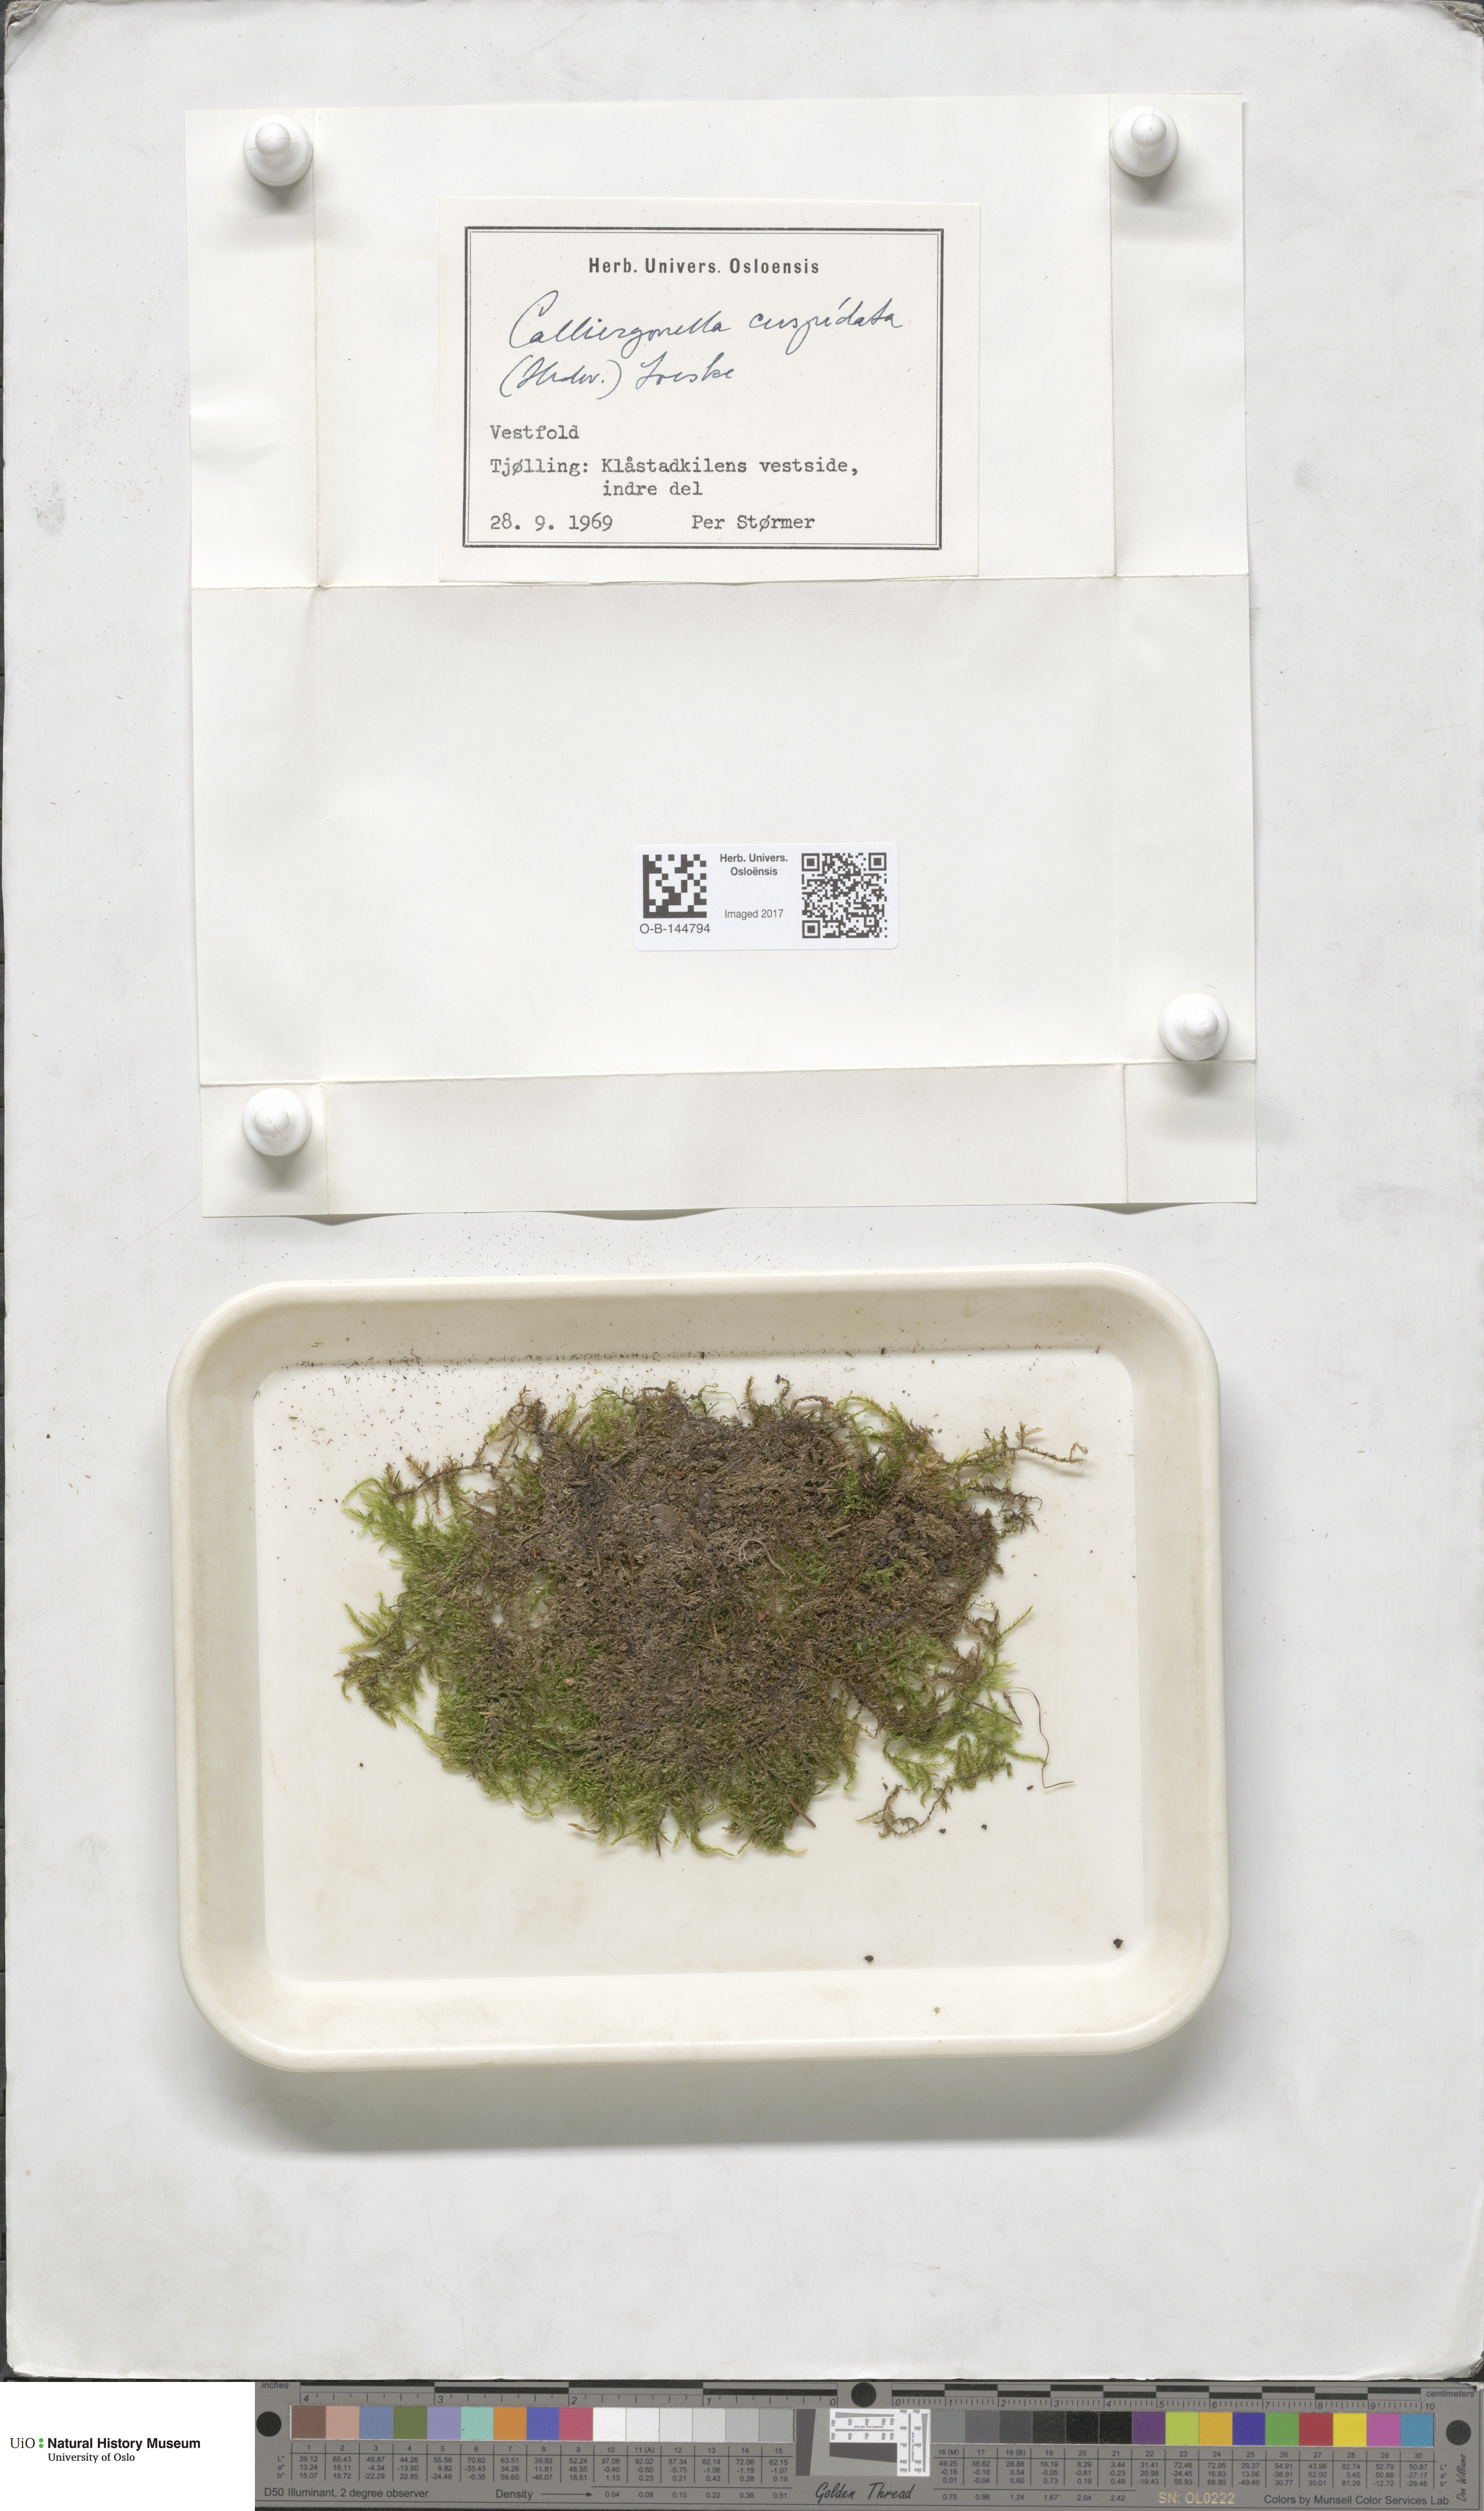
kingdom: Plantae
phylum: Bryophyta
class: Bryopsida
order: Hypnales
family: Pylaisiaceae
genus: Calliergonella
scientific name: Calliergonella cuspidata
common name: Common large wetland moss
